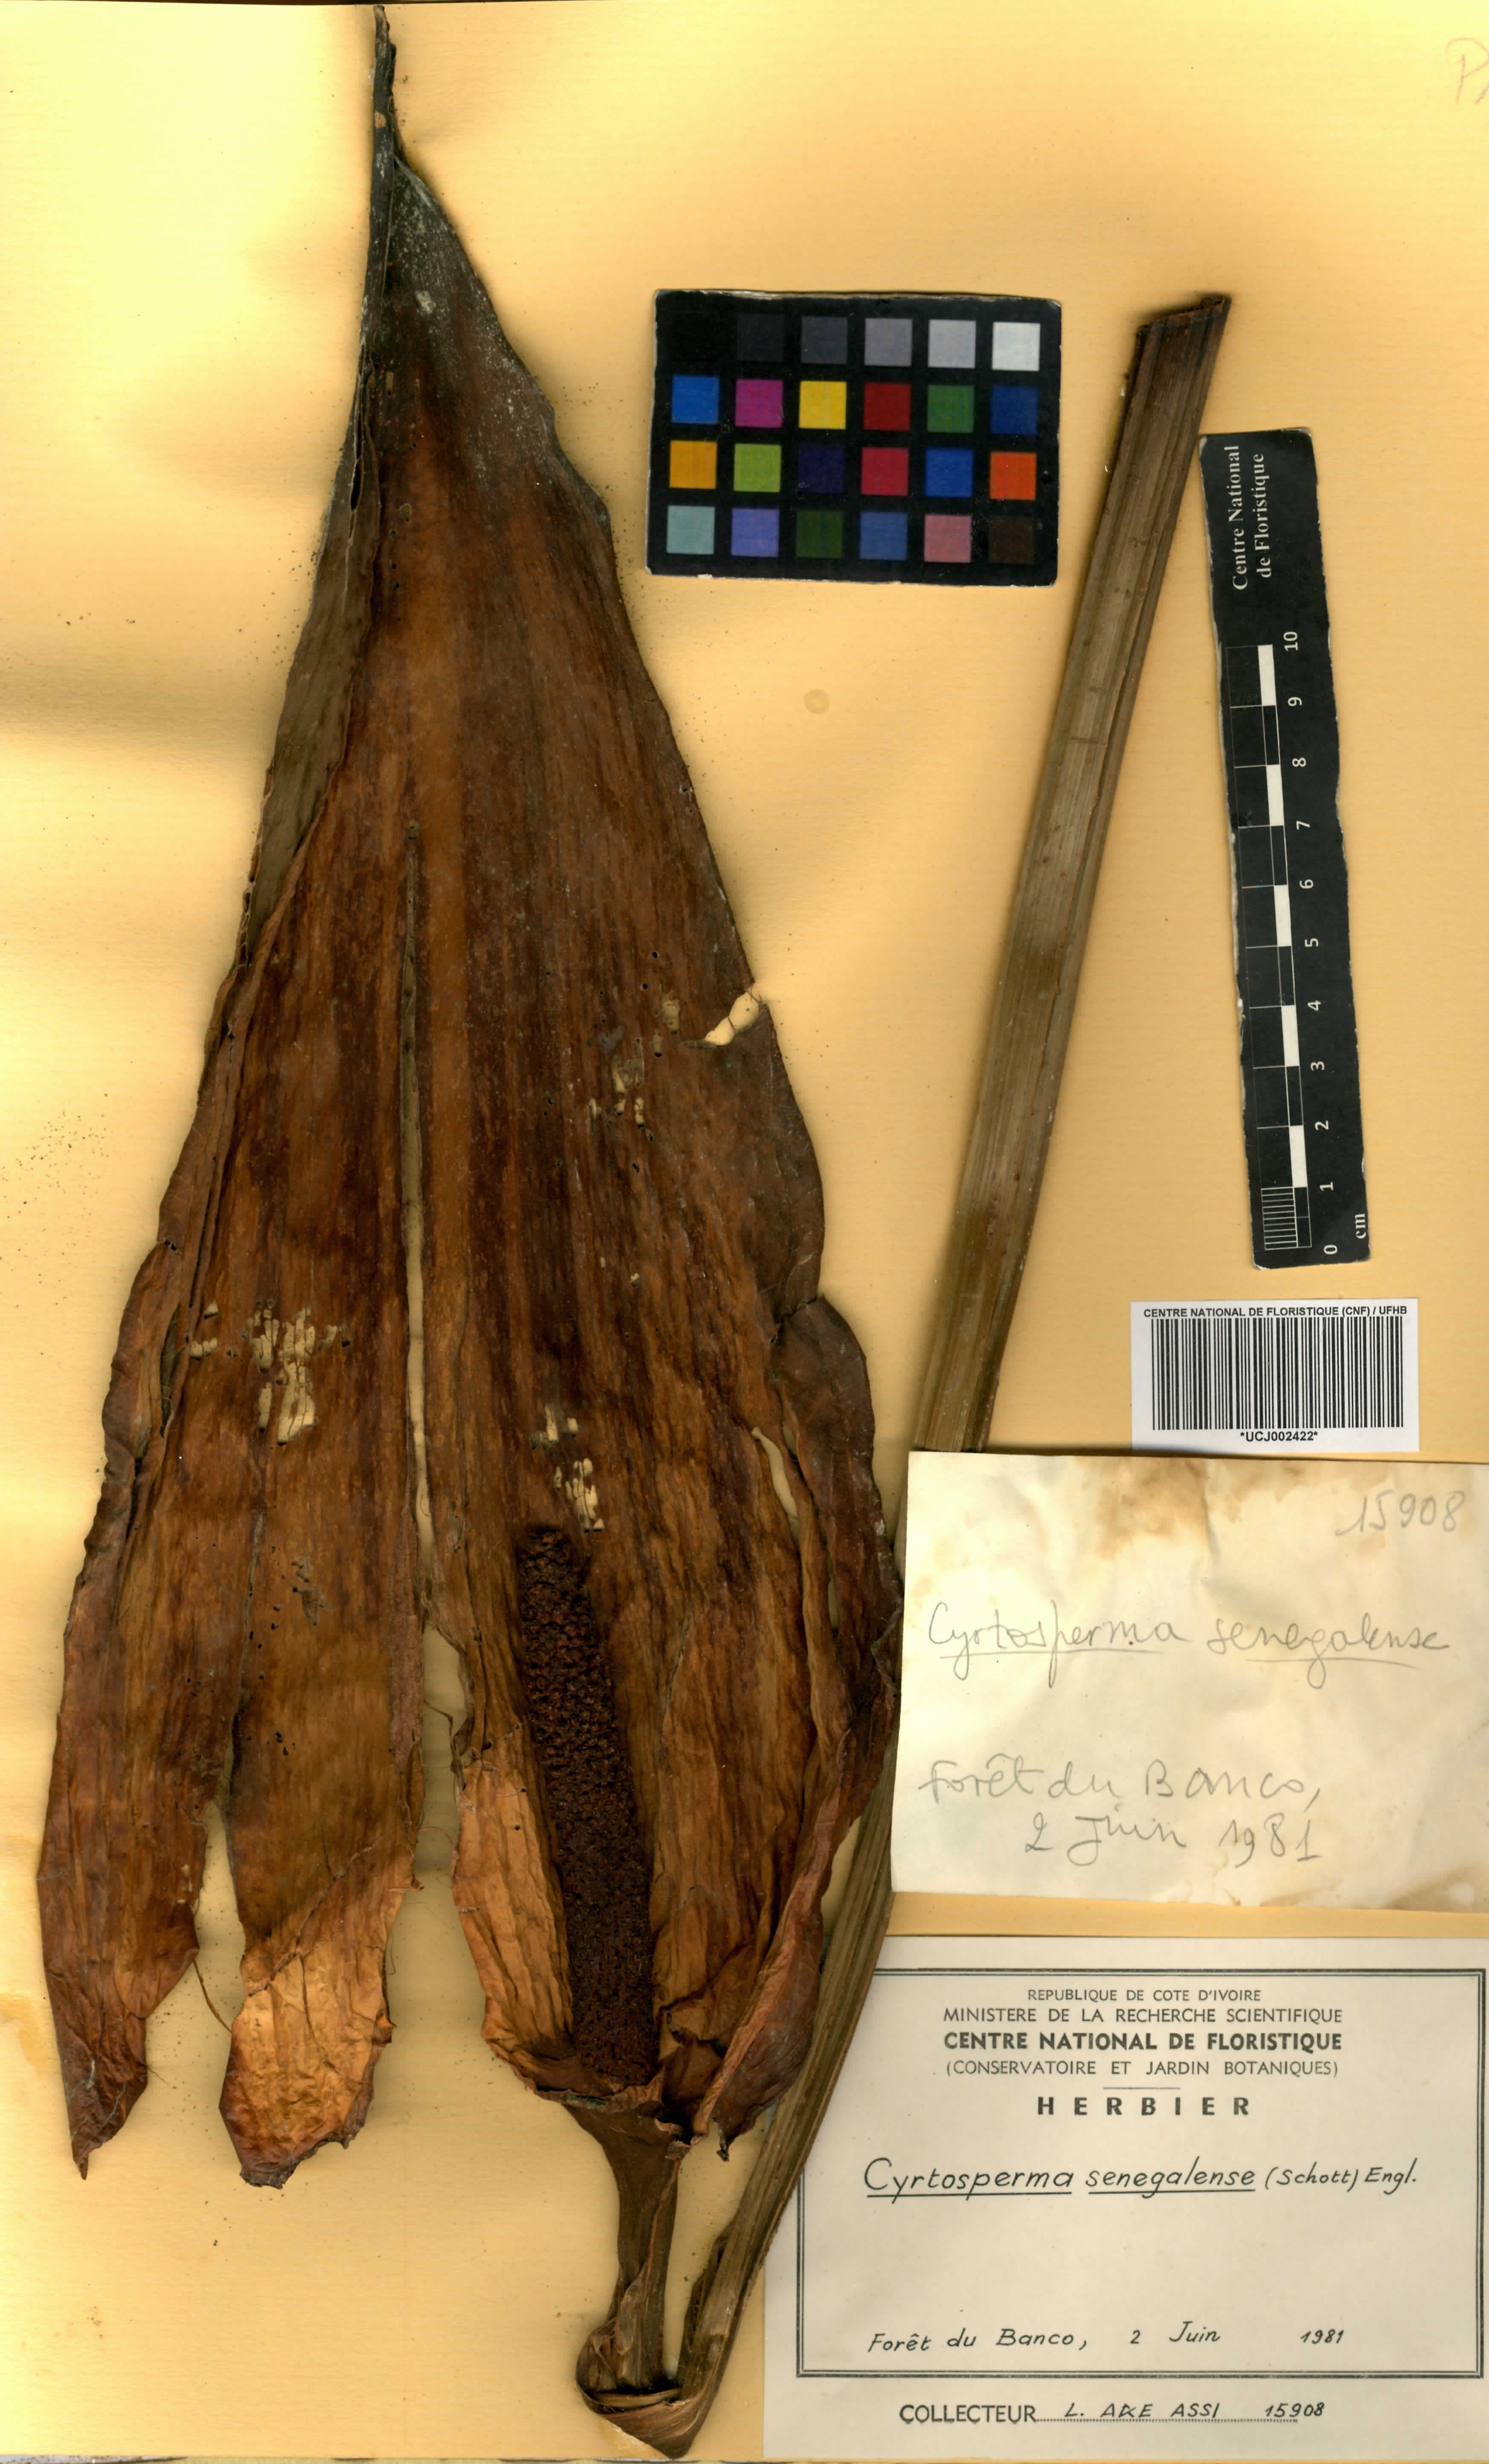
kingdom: Plantae
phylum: Tracheophyta
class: Liliopsida
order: Alismatales
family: Araceae
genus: Lasimorpha
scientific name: Lasimorpha senegalensis
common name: Swamp arum
